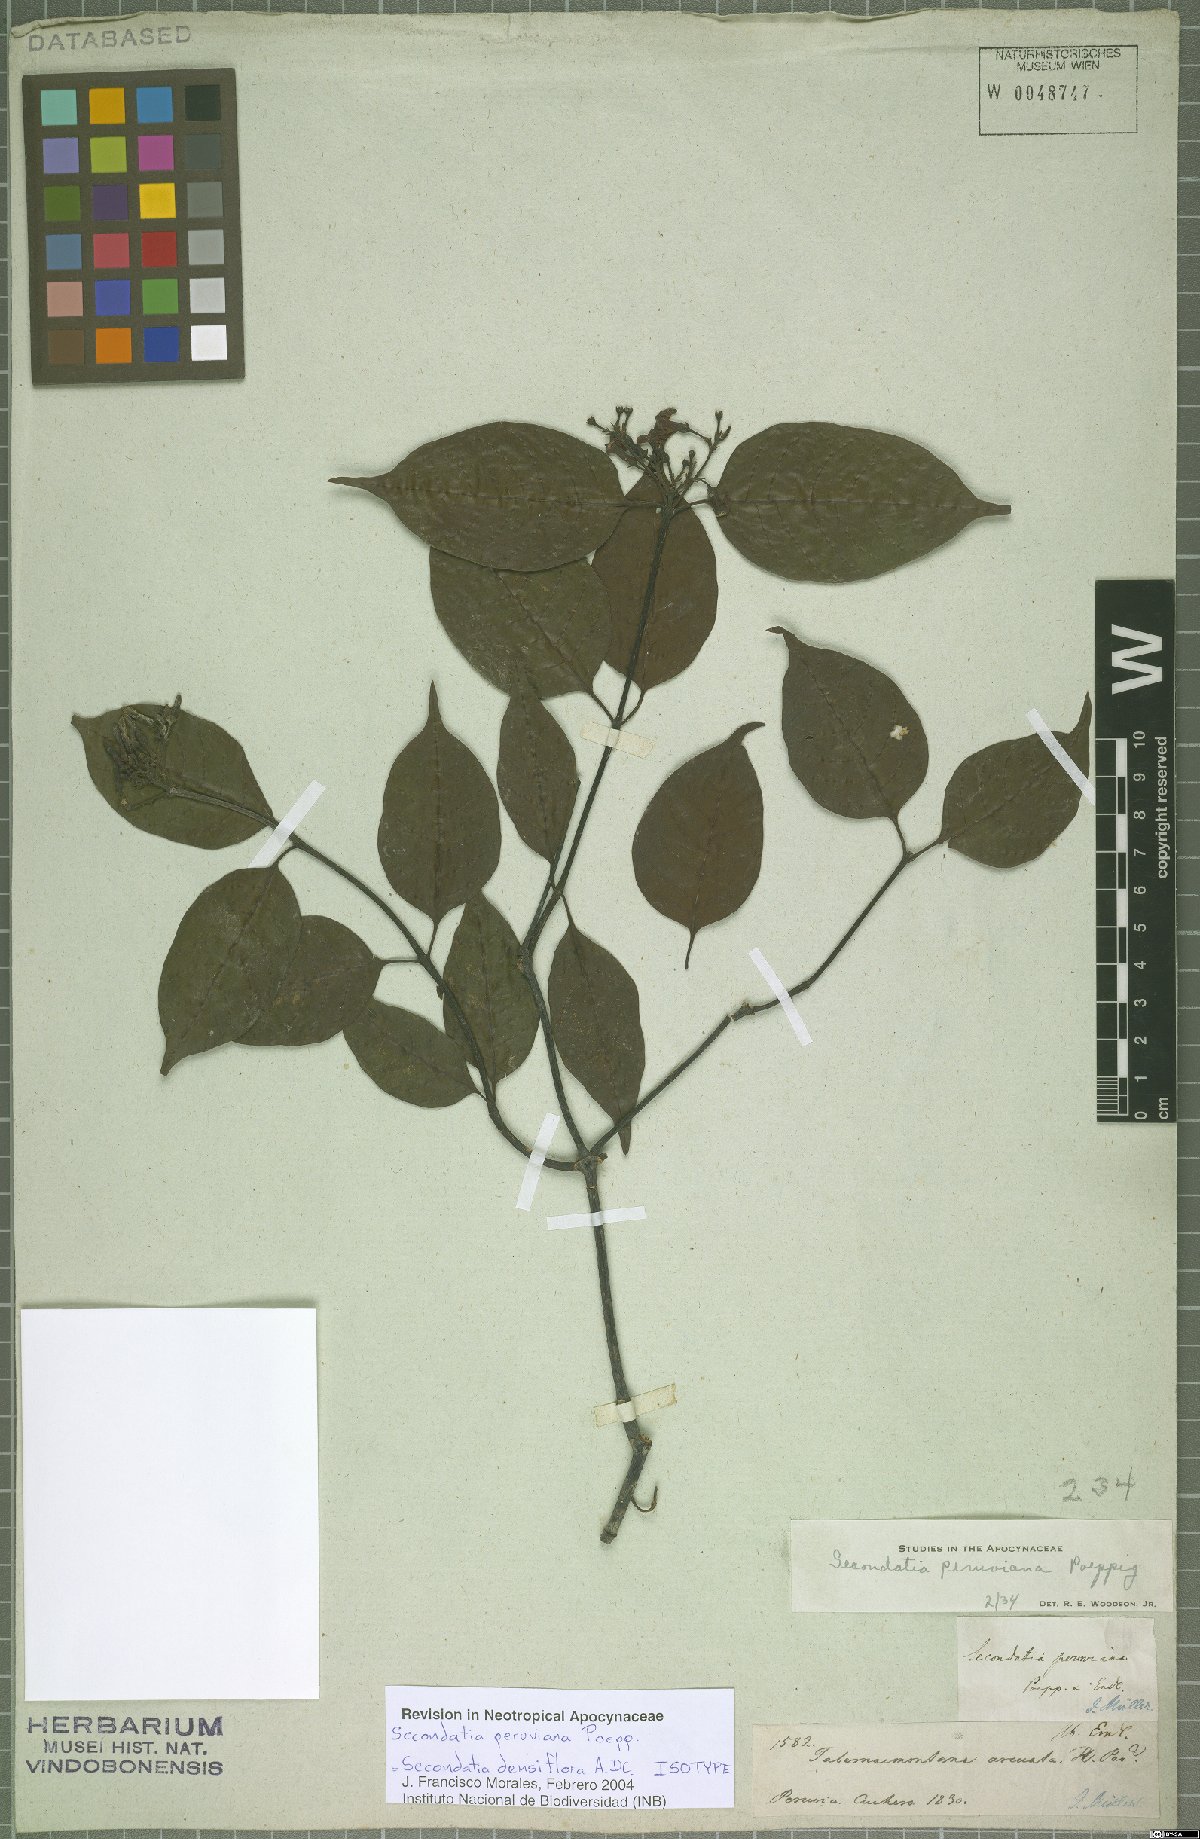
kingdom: Plantae
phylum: Tracheophyta
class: Magnoliopsida
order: Gentianales
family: Apocynaceae
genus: Secondatia
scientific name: Secondatia densiflora
